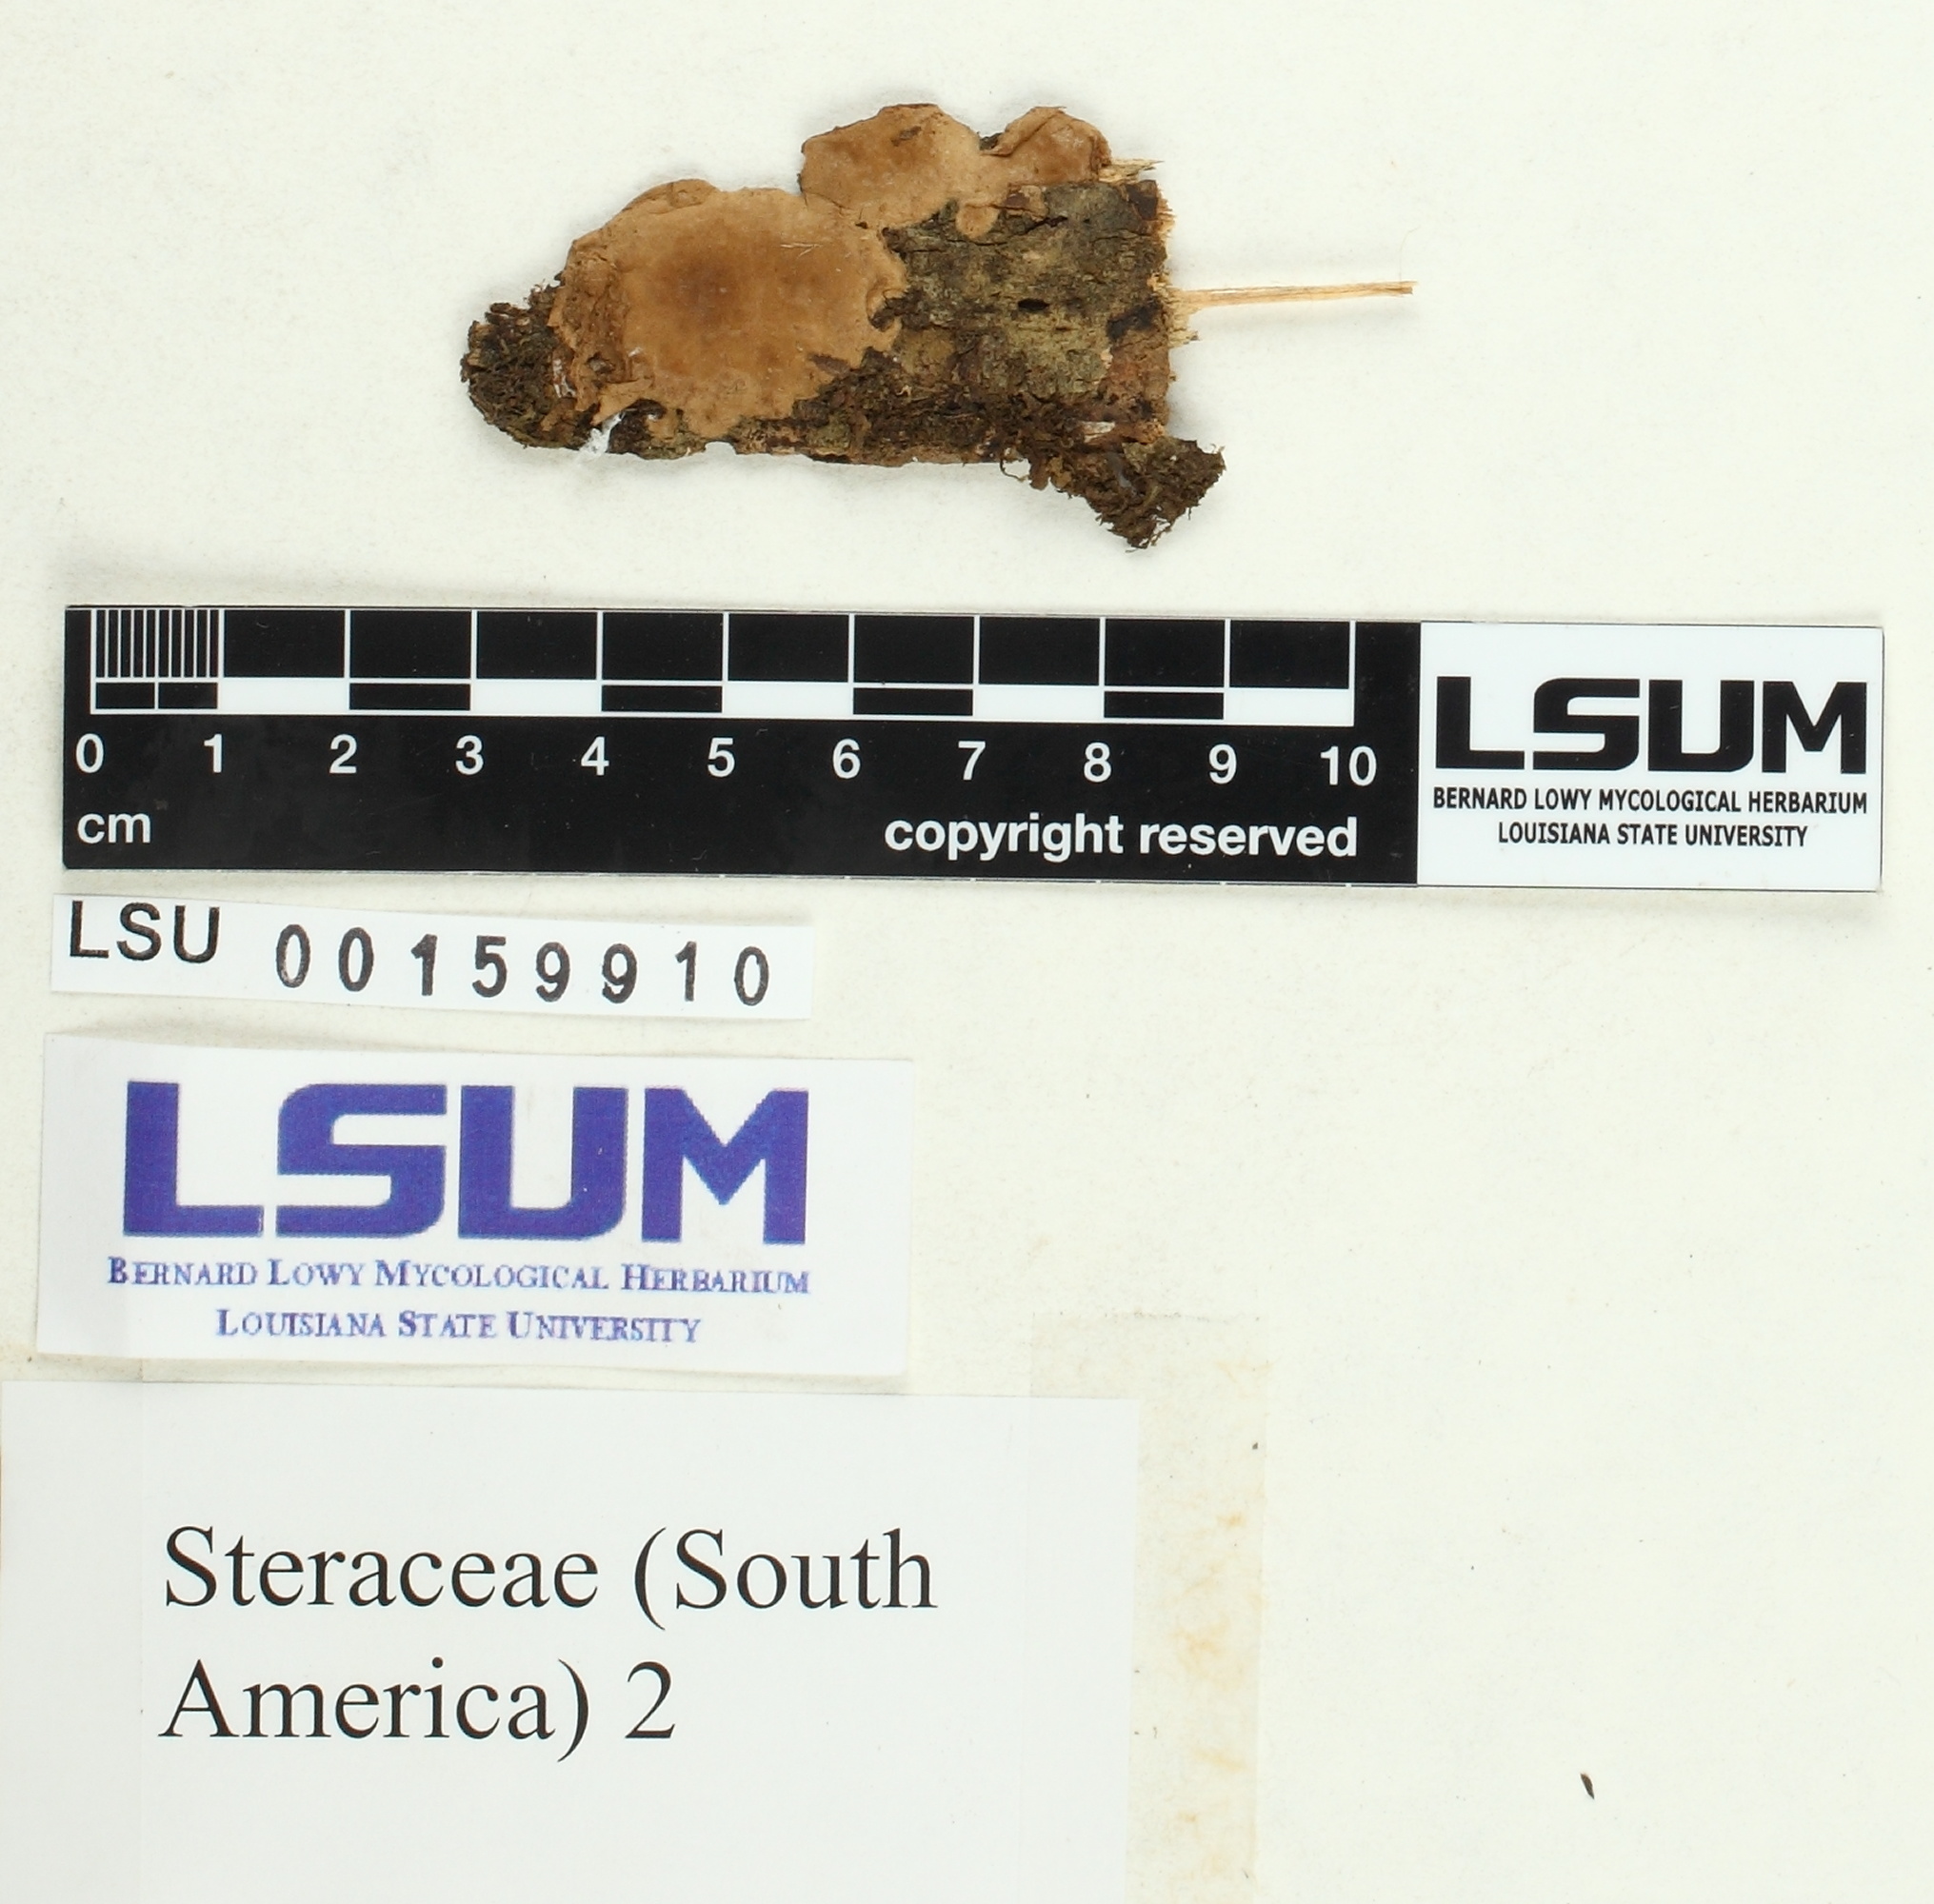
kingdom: Fungi
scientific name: Fungi
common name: Fungi
